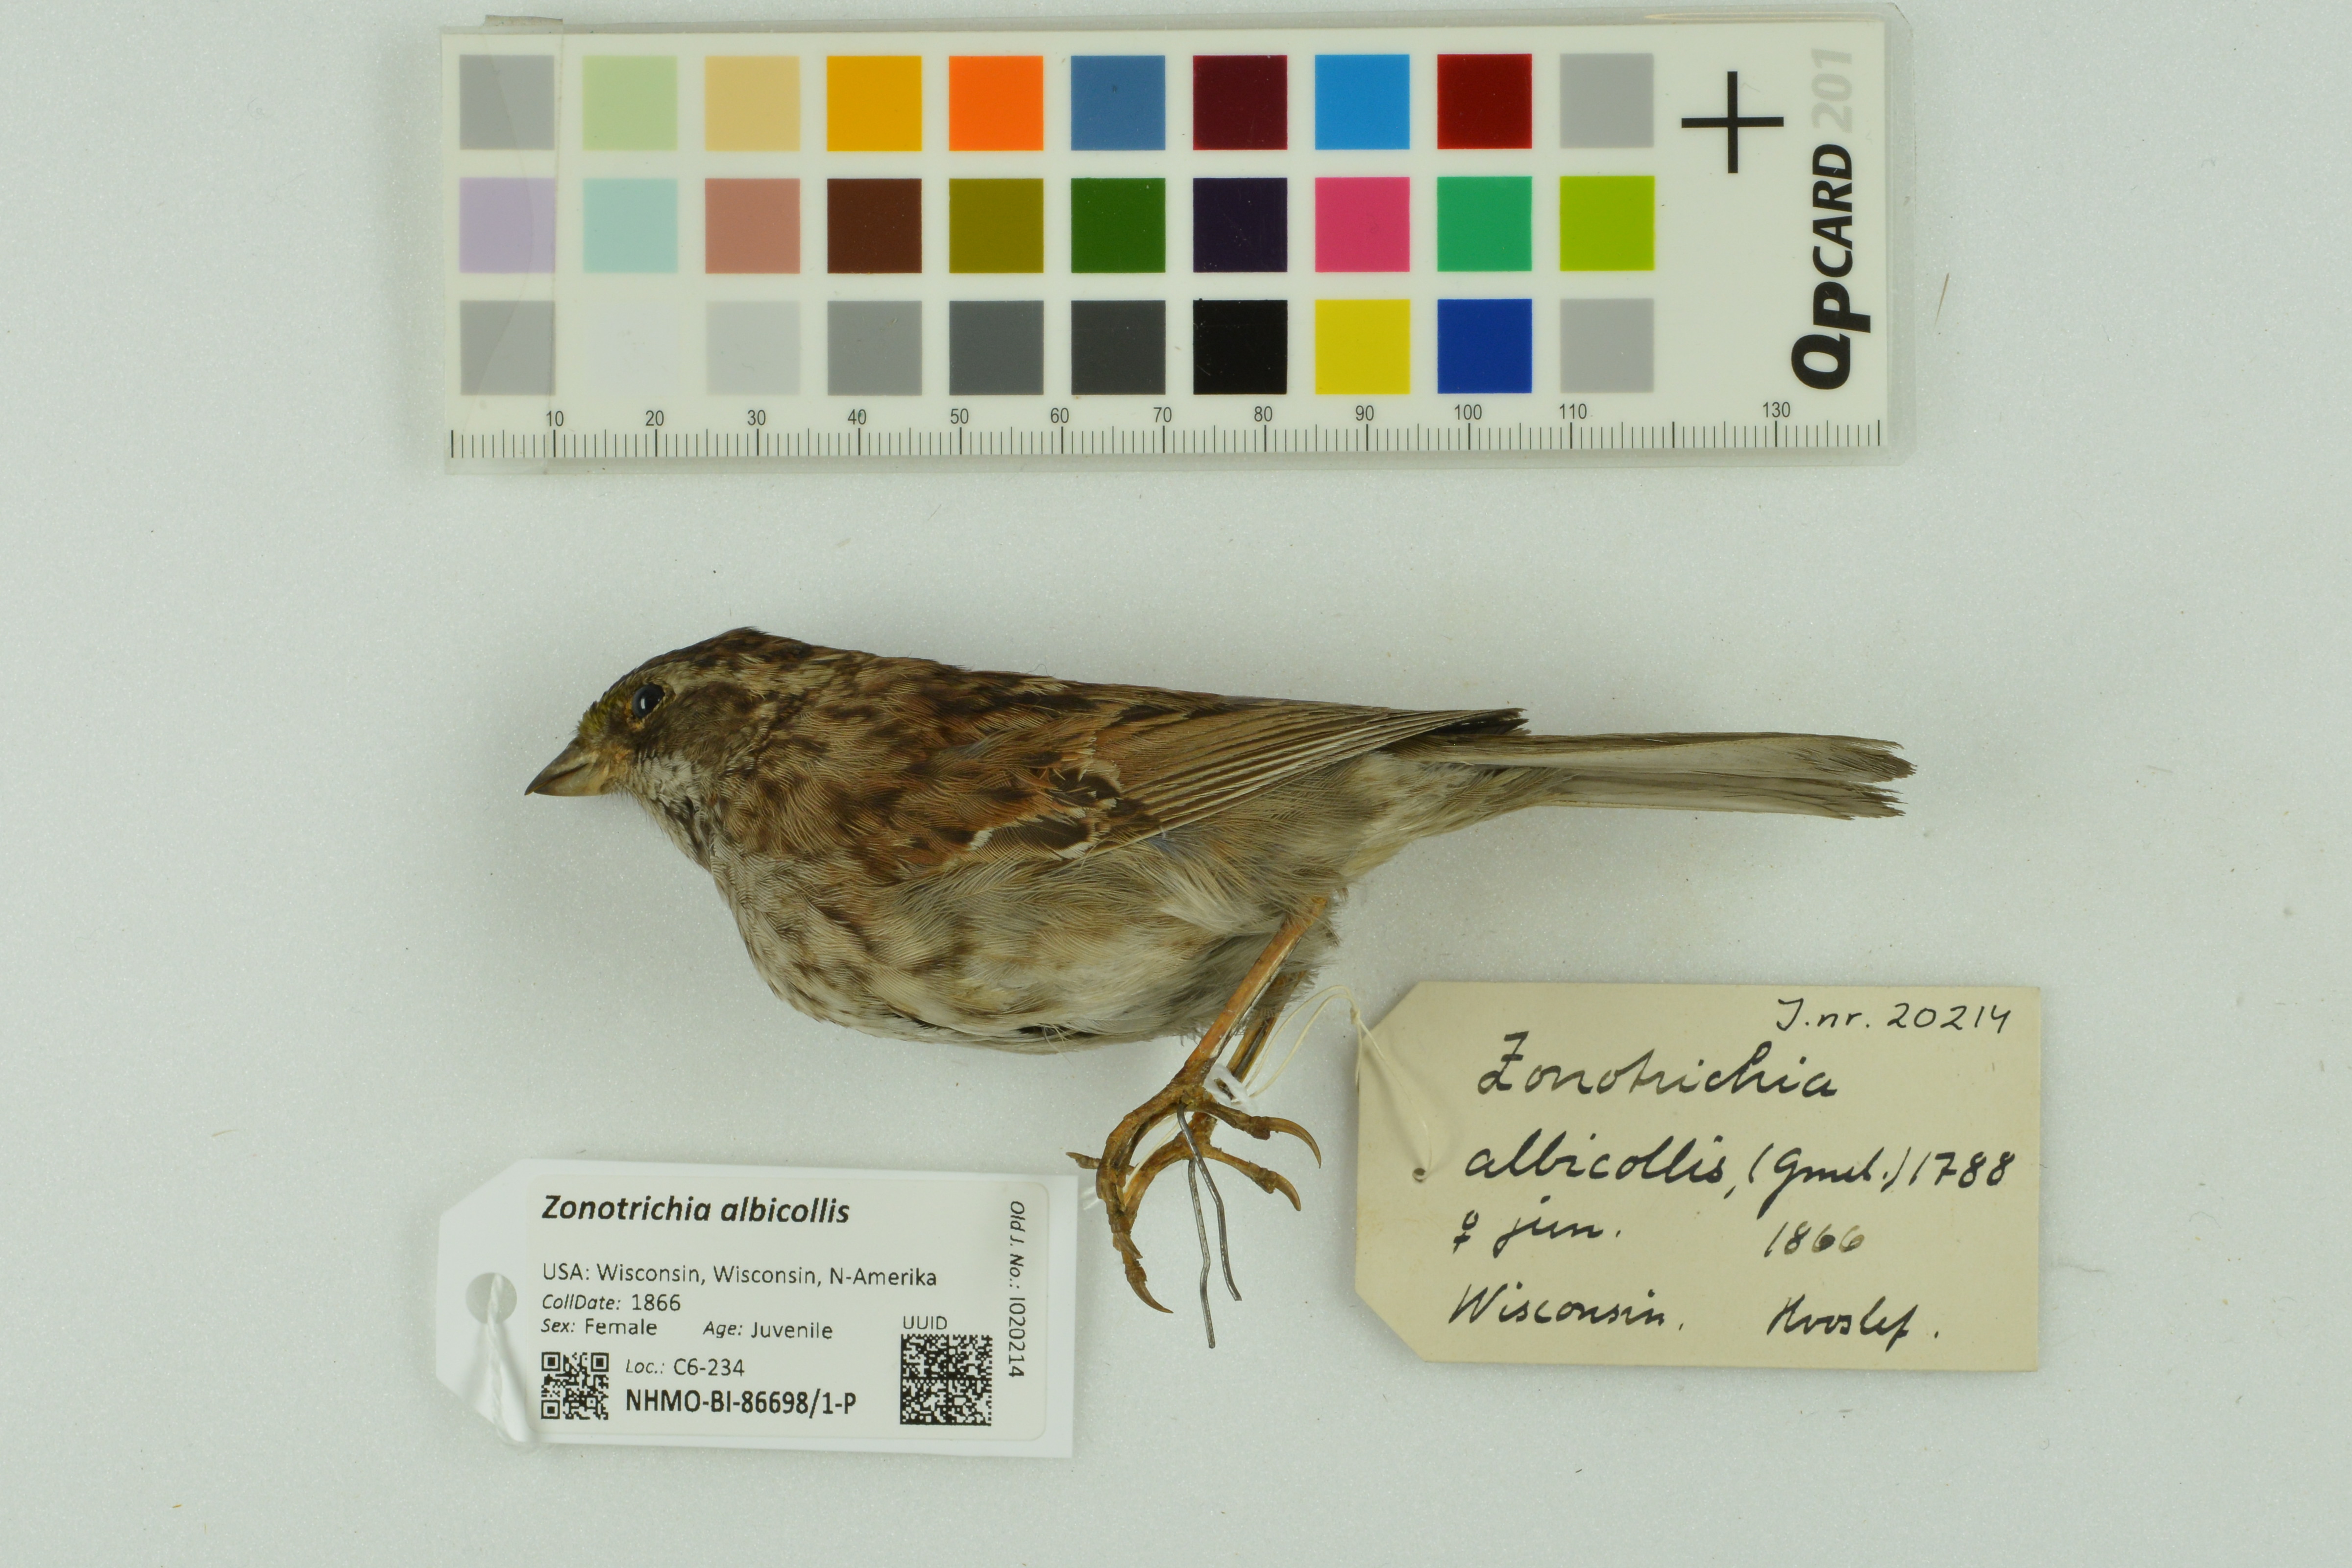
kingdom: Animalia
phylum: Chordata
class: Aves
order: Passeriformes
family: Passerellidae
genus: Zonotrichia
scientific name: Zonotrichia albicollis
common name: White-throated sparrow
